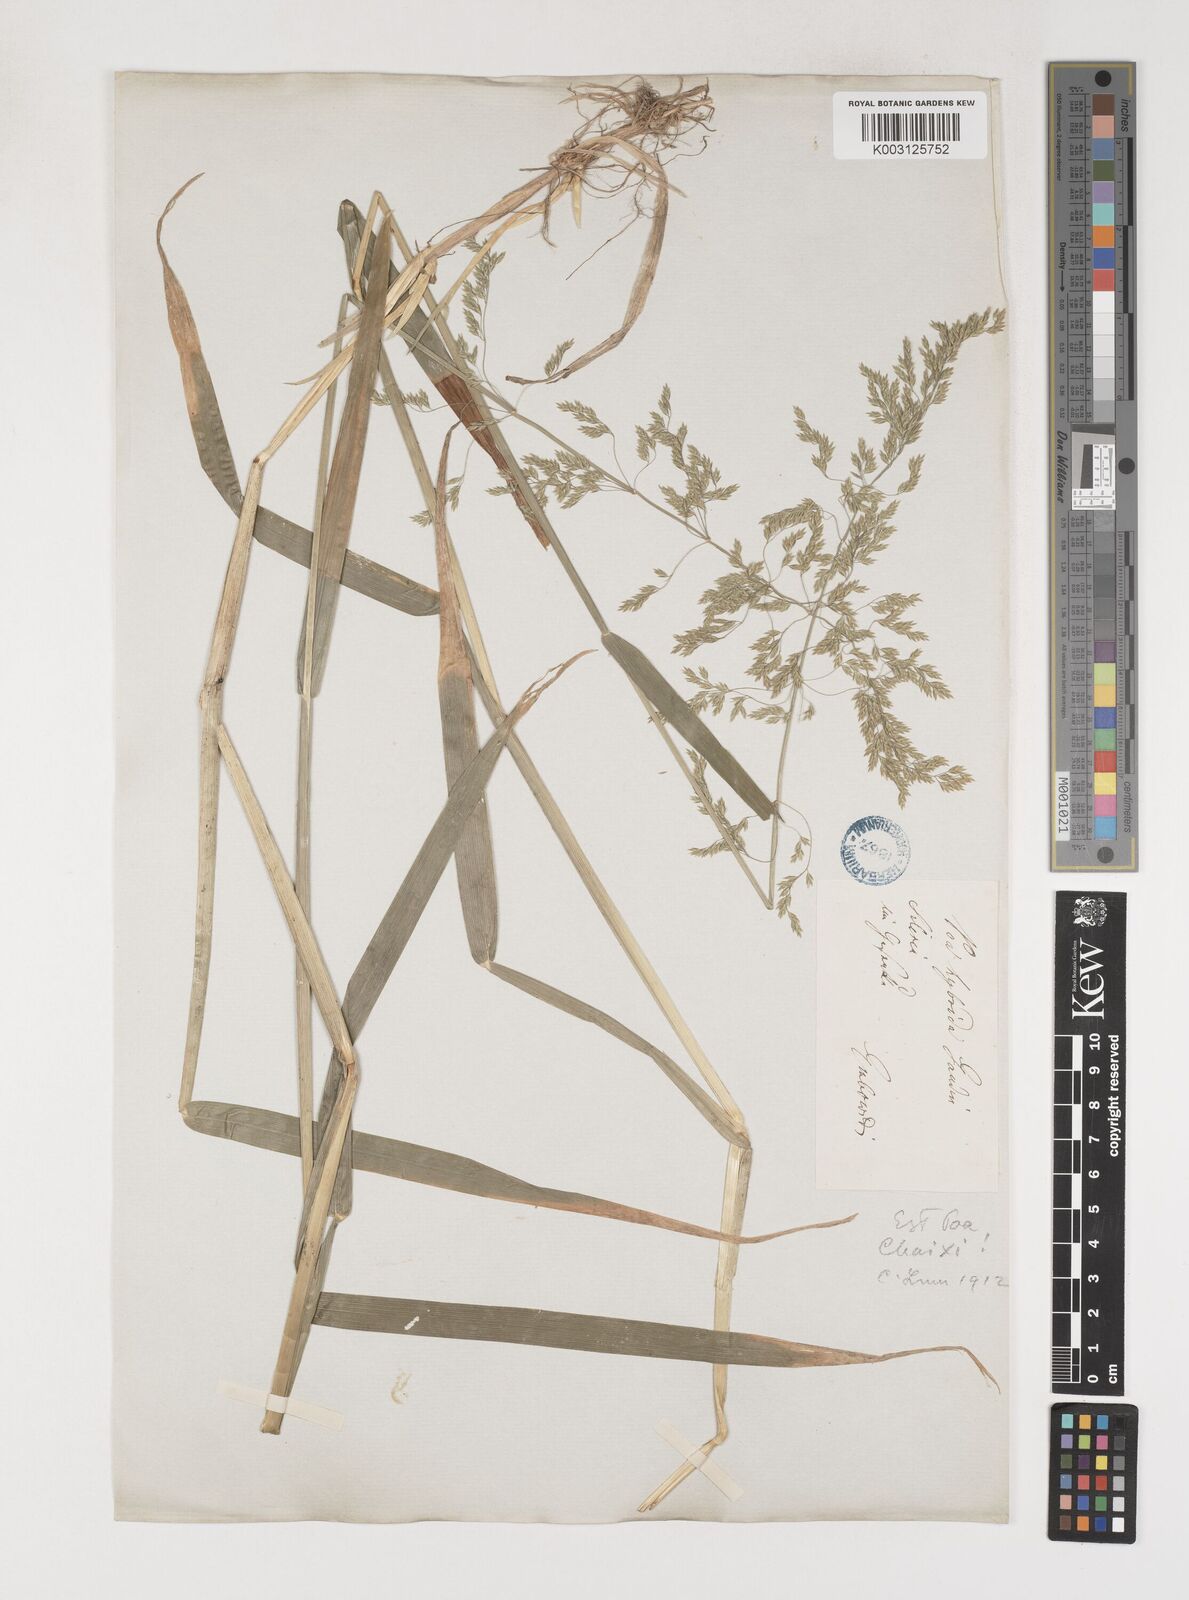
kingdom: Plantae
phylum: Tracheophyta
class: Liliopsida
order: Poales
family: Poaceae
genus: Poa
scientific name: Poa chaixii
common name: Broad-leaved meadow-grass
